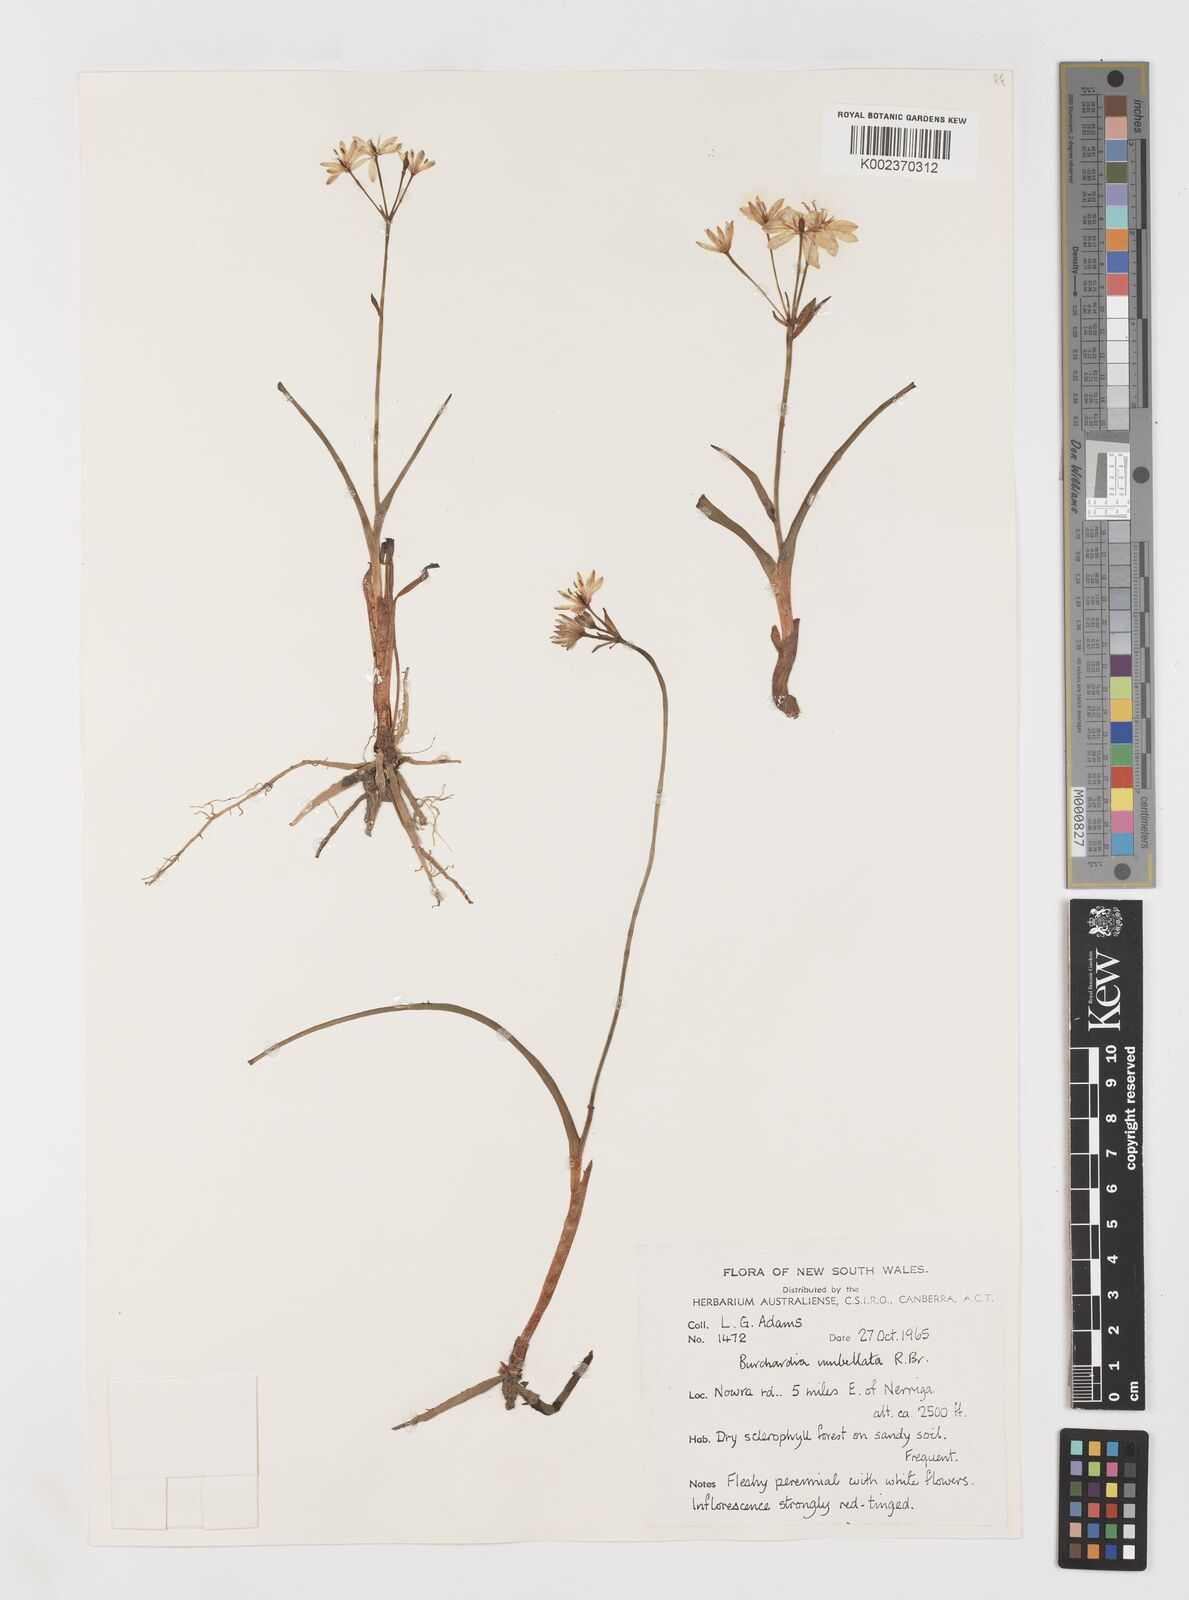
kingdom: Plantae
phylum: Tracheophyta
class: Liliopsida
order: Liliales
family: Colchicaceae
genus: Burchardia
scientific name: Burchardia umbellata
